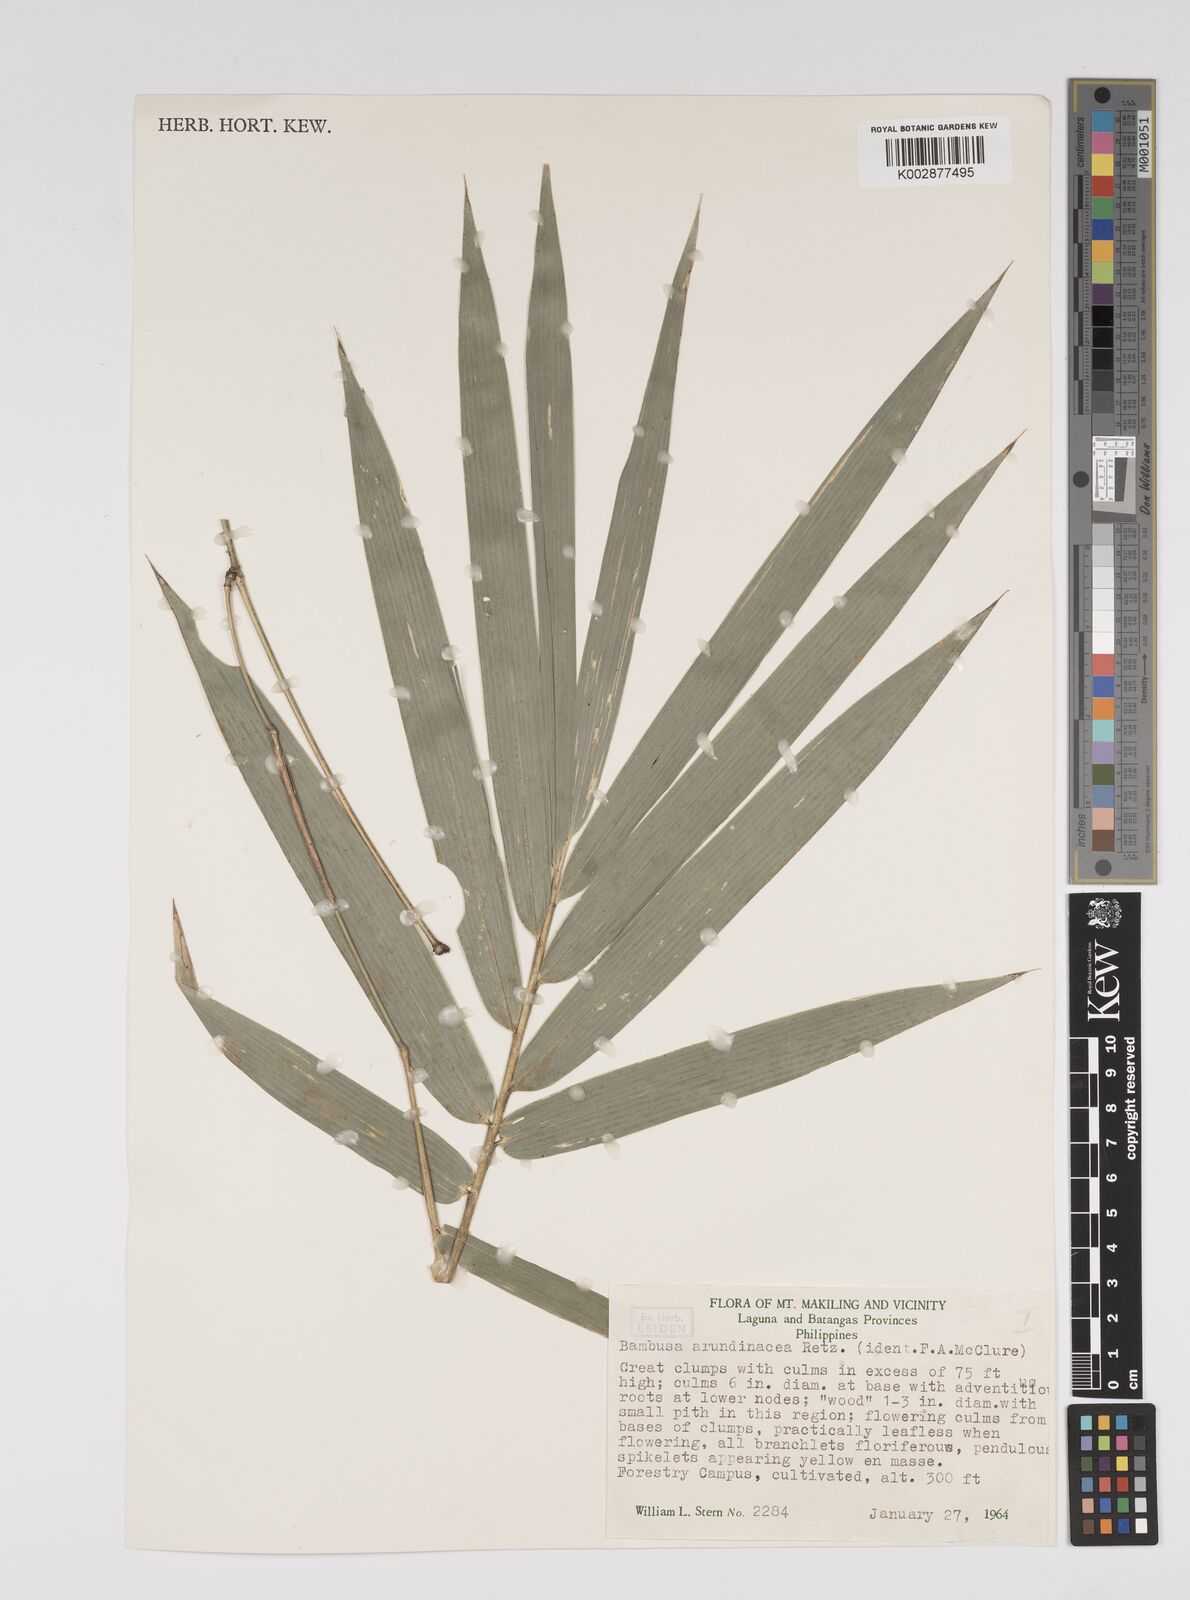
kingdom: Plantae
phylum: Tracheophyta
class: Liliopsida
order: Poales
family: Poaceae
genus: Bambusa
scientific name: Bambusa bambos
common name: Indian thorny bamboo
